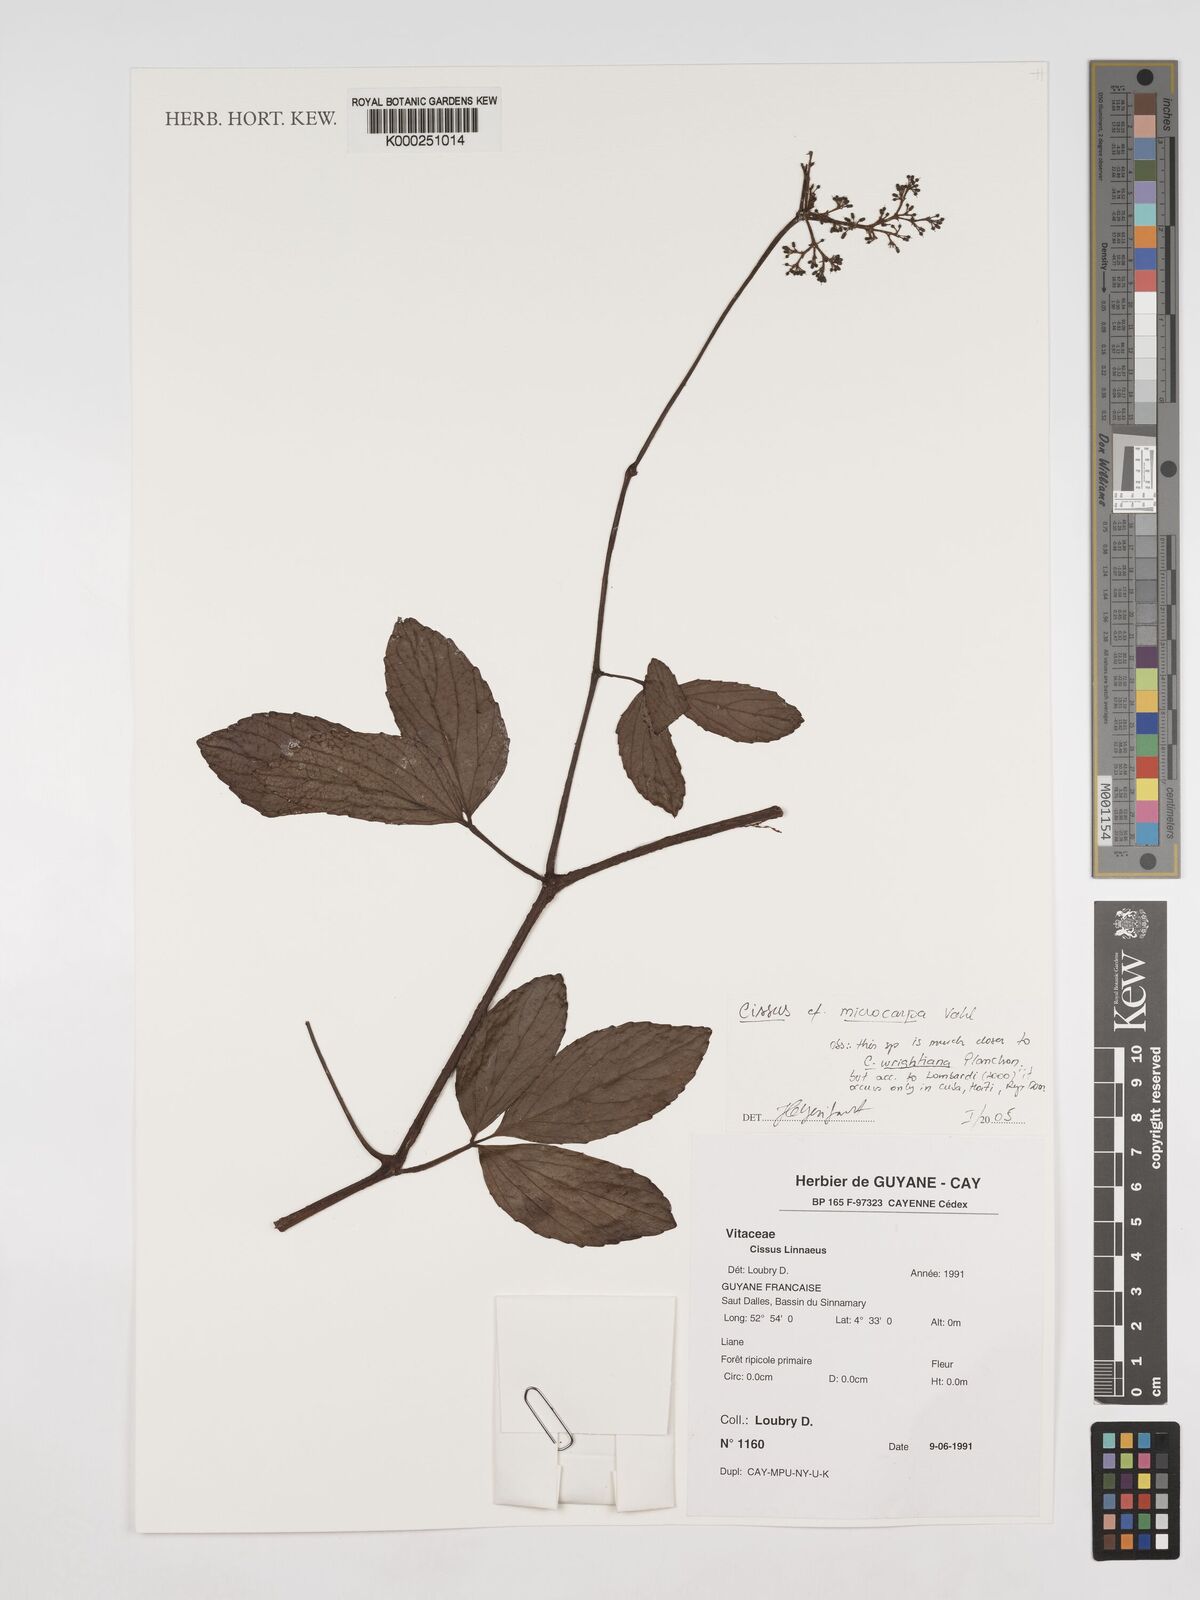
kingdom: Plantae
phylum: Tracheophyta
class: Magnoliopsida
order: Vitales
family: Vitaceae
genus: Cissus
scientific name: Cissus microcarpa
